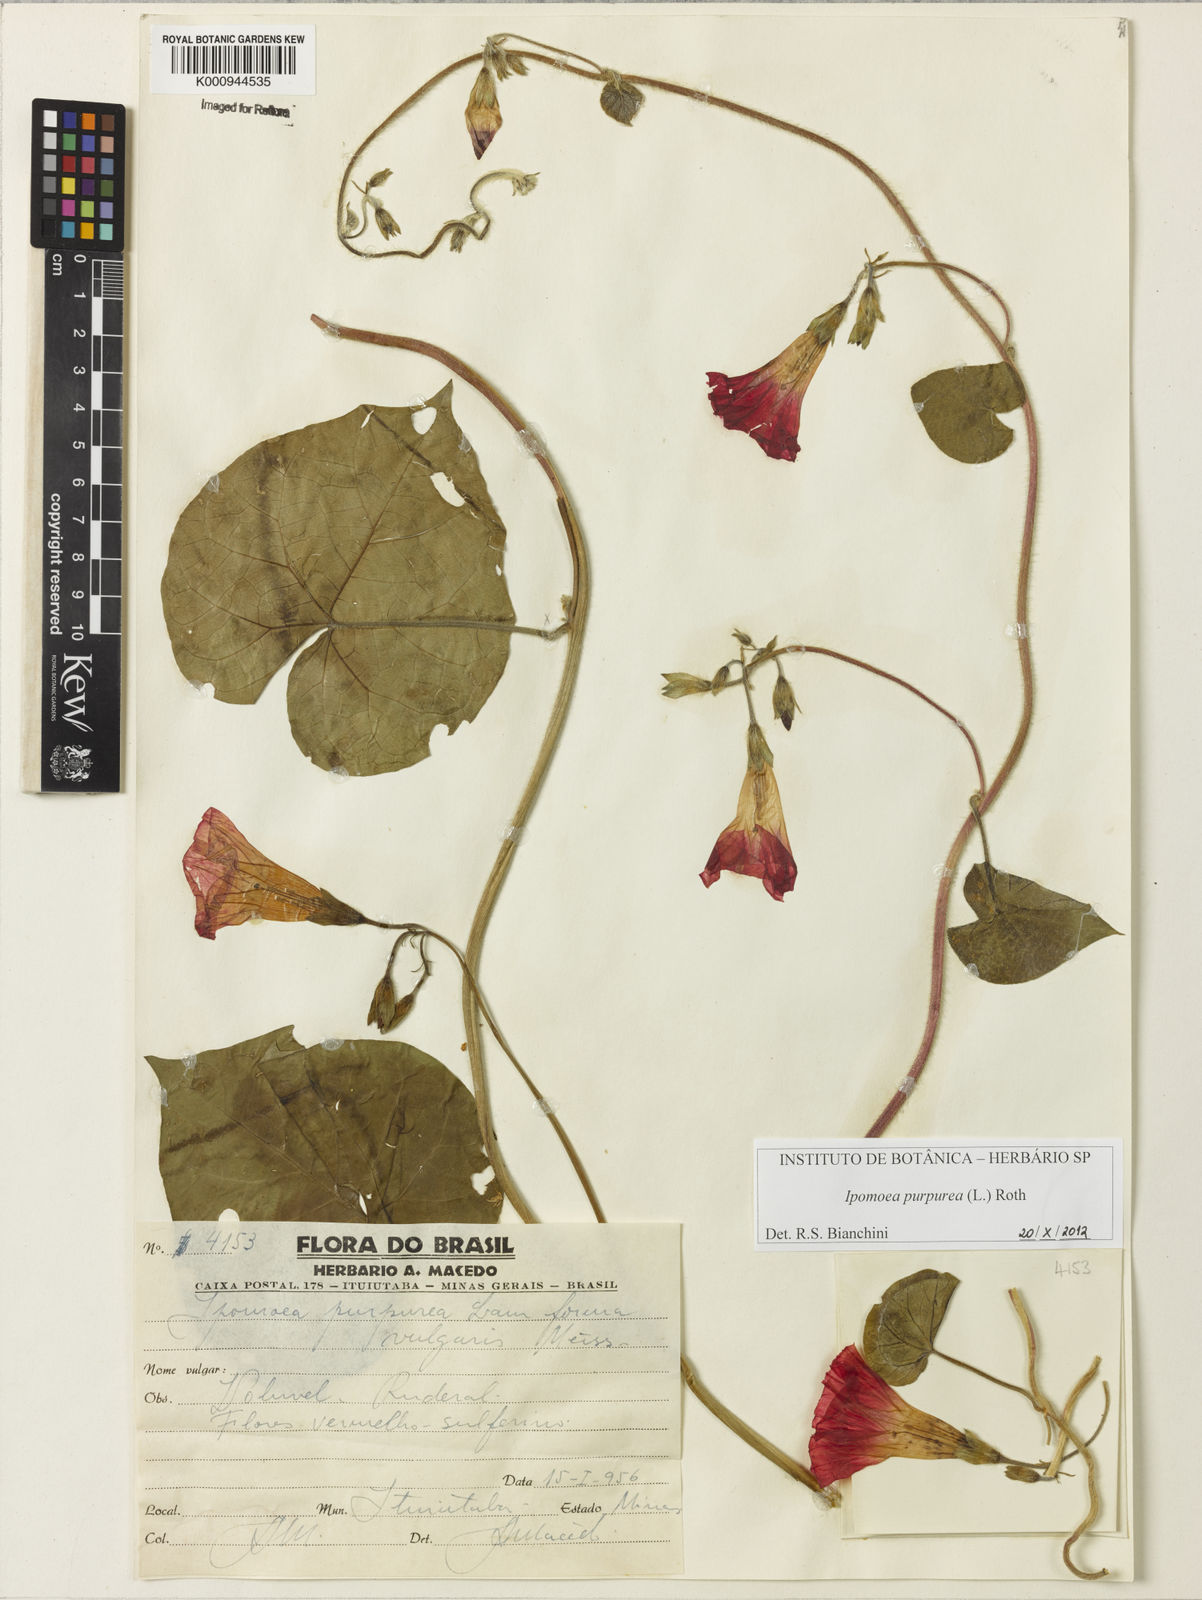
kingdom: Plantae
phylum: Tracheophyta
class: Magnoliopsida
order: Solanales
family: Convolvulaceae
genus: Ipomoea
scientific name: Ipomoea purpurea
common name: Common morning-glory
